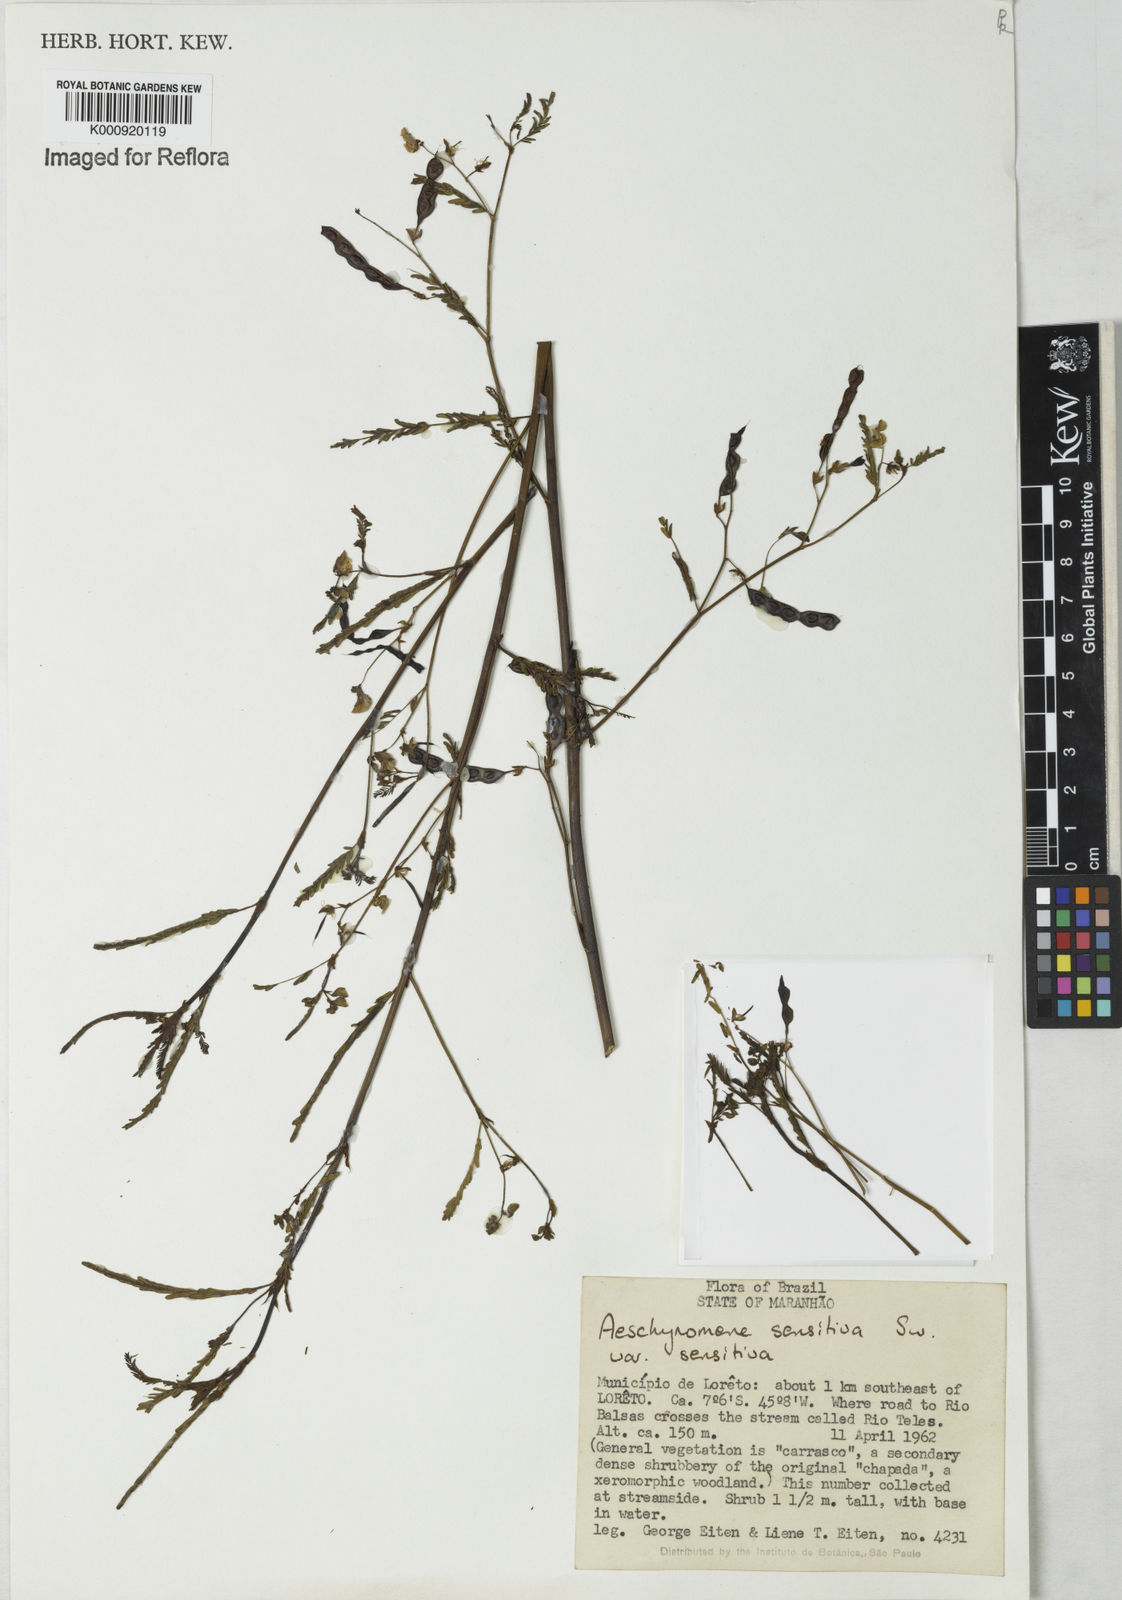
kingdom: Plantae
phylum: Tracheophyta
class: Magnoliopsida
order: Fabales
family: Fabaceae
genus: Aeschynomene
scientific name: Aeschynomene sensitiva
